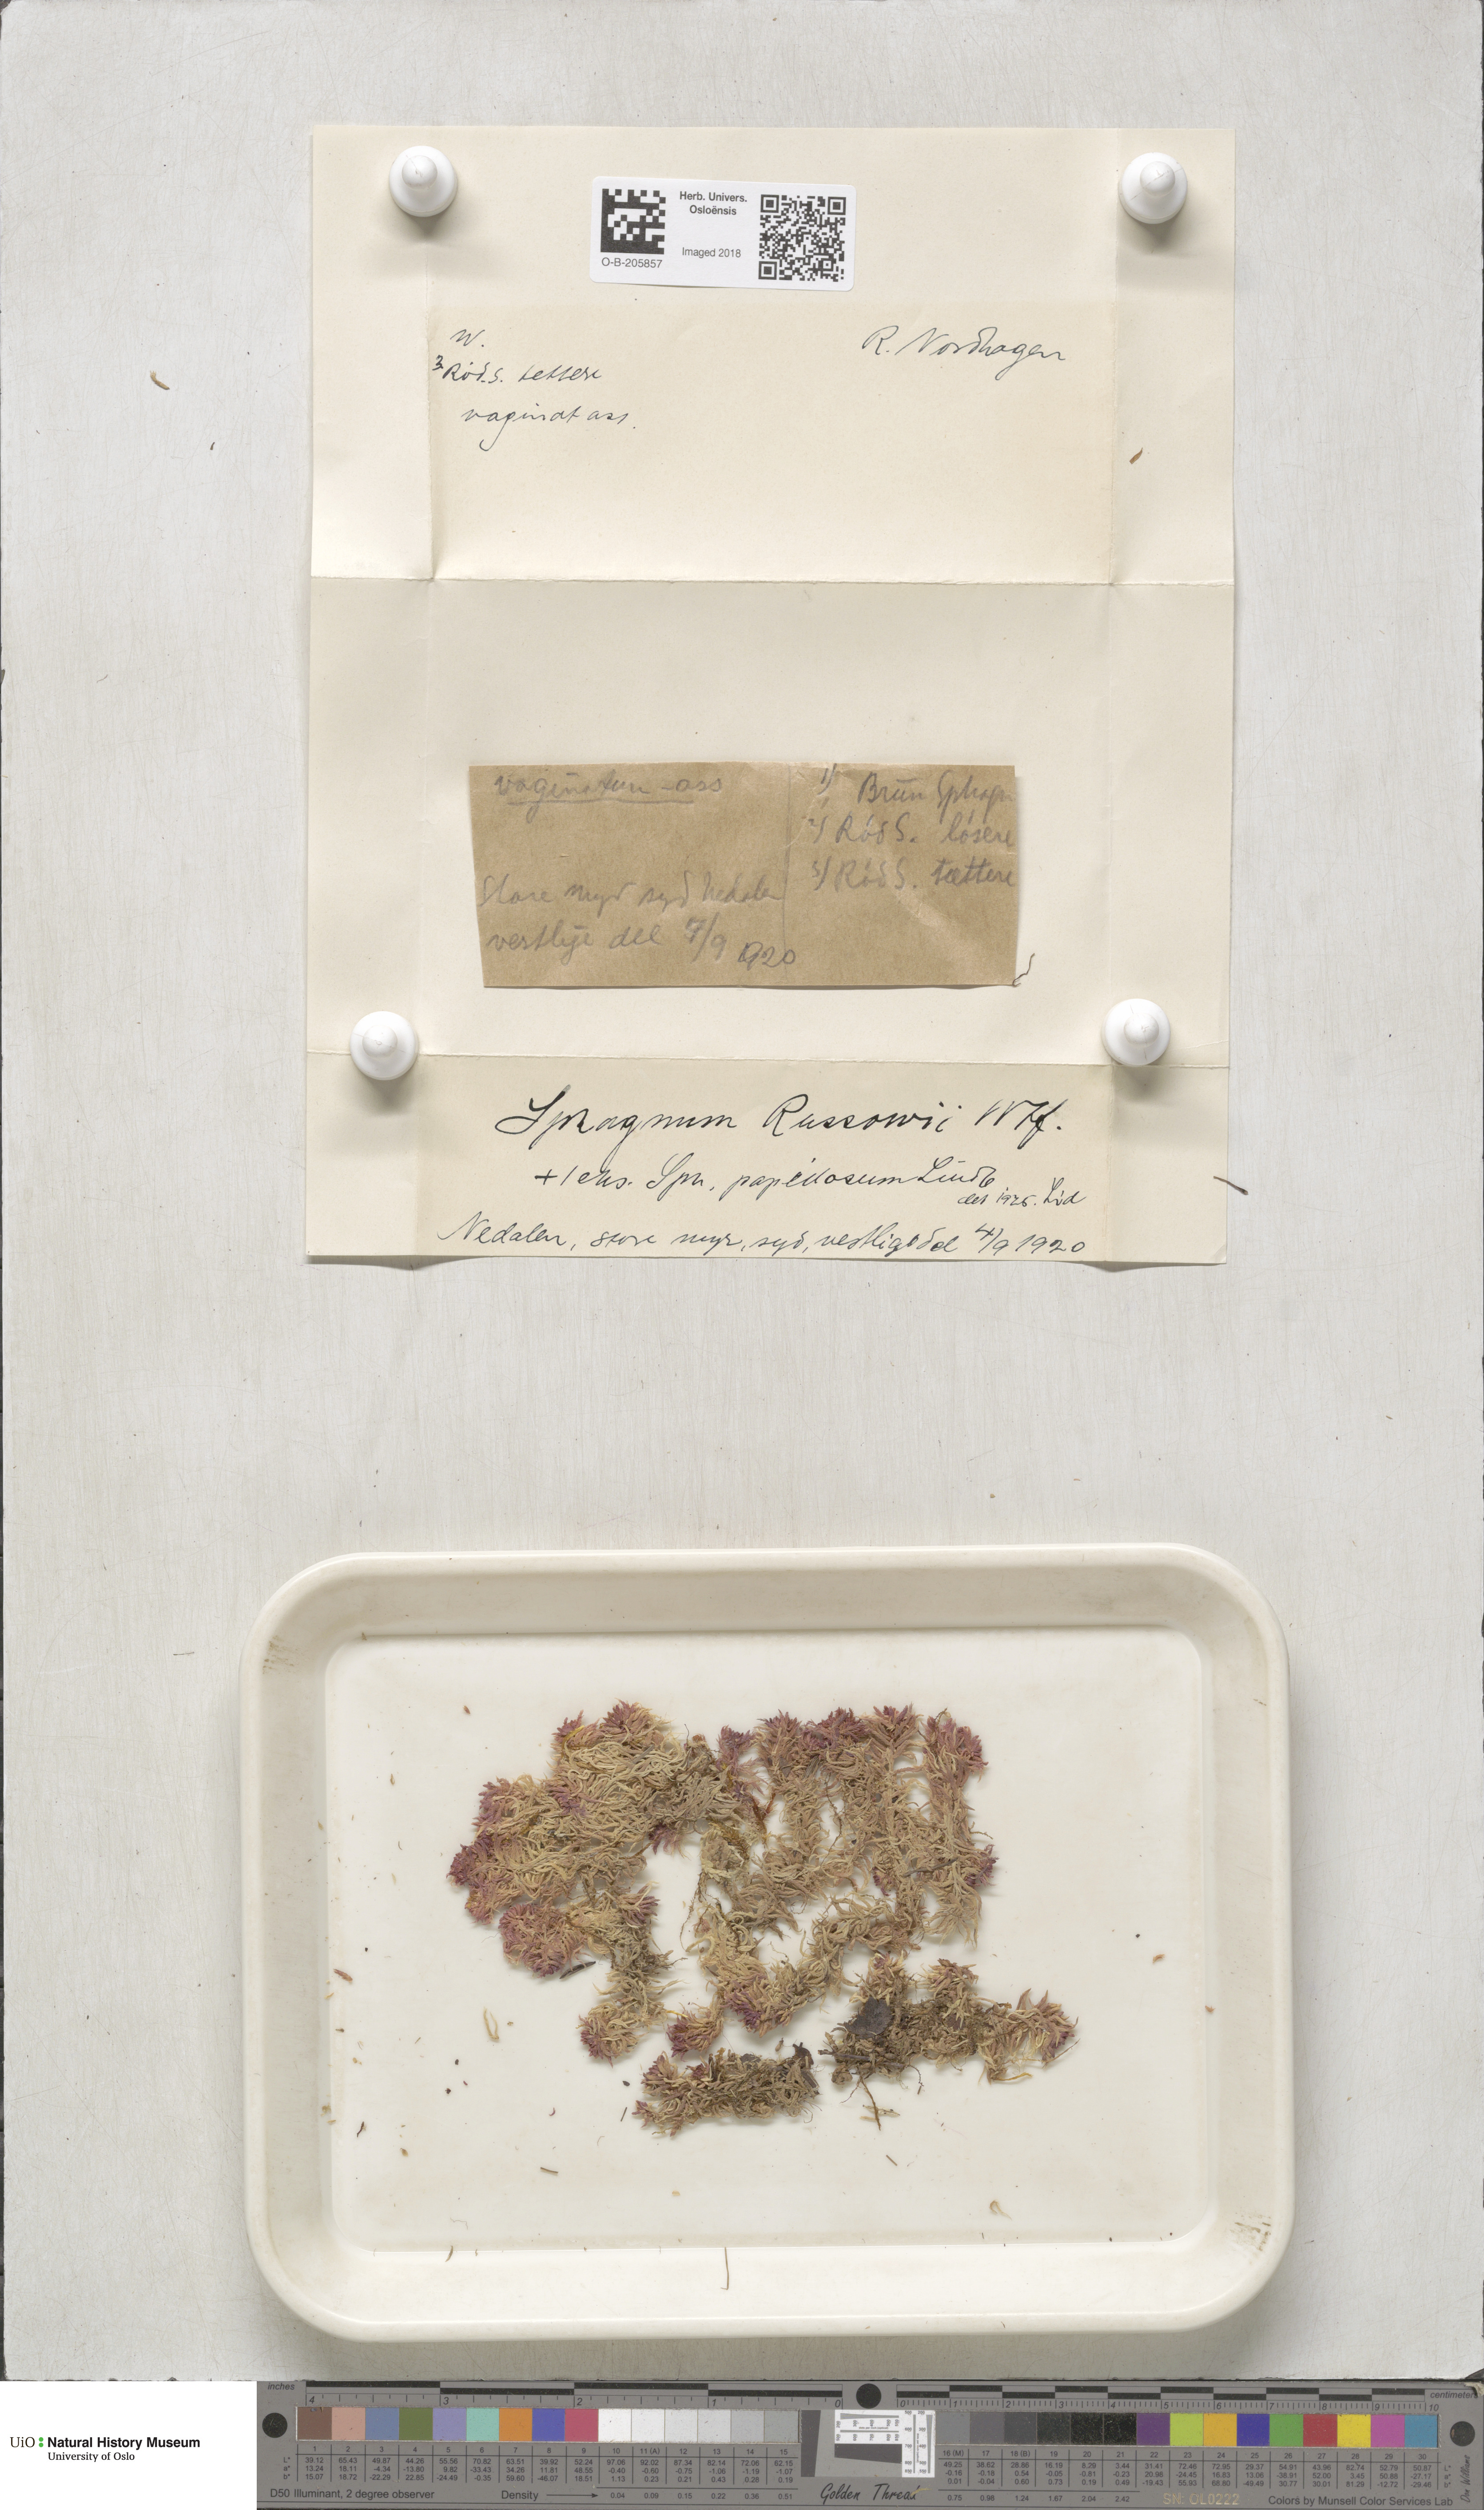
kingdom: Plantae
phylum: Bryophyta
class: Sphagnopsida
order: Sphagnales
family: Sphagnaceae
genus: Sphagnum
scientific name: Sphagnum russowii
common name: Russow's peat moss
